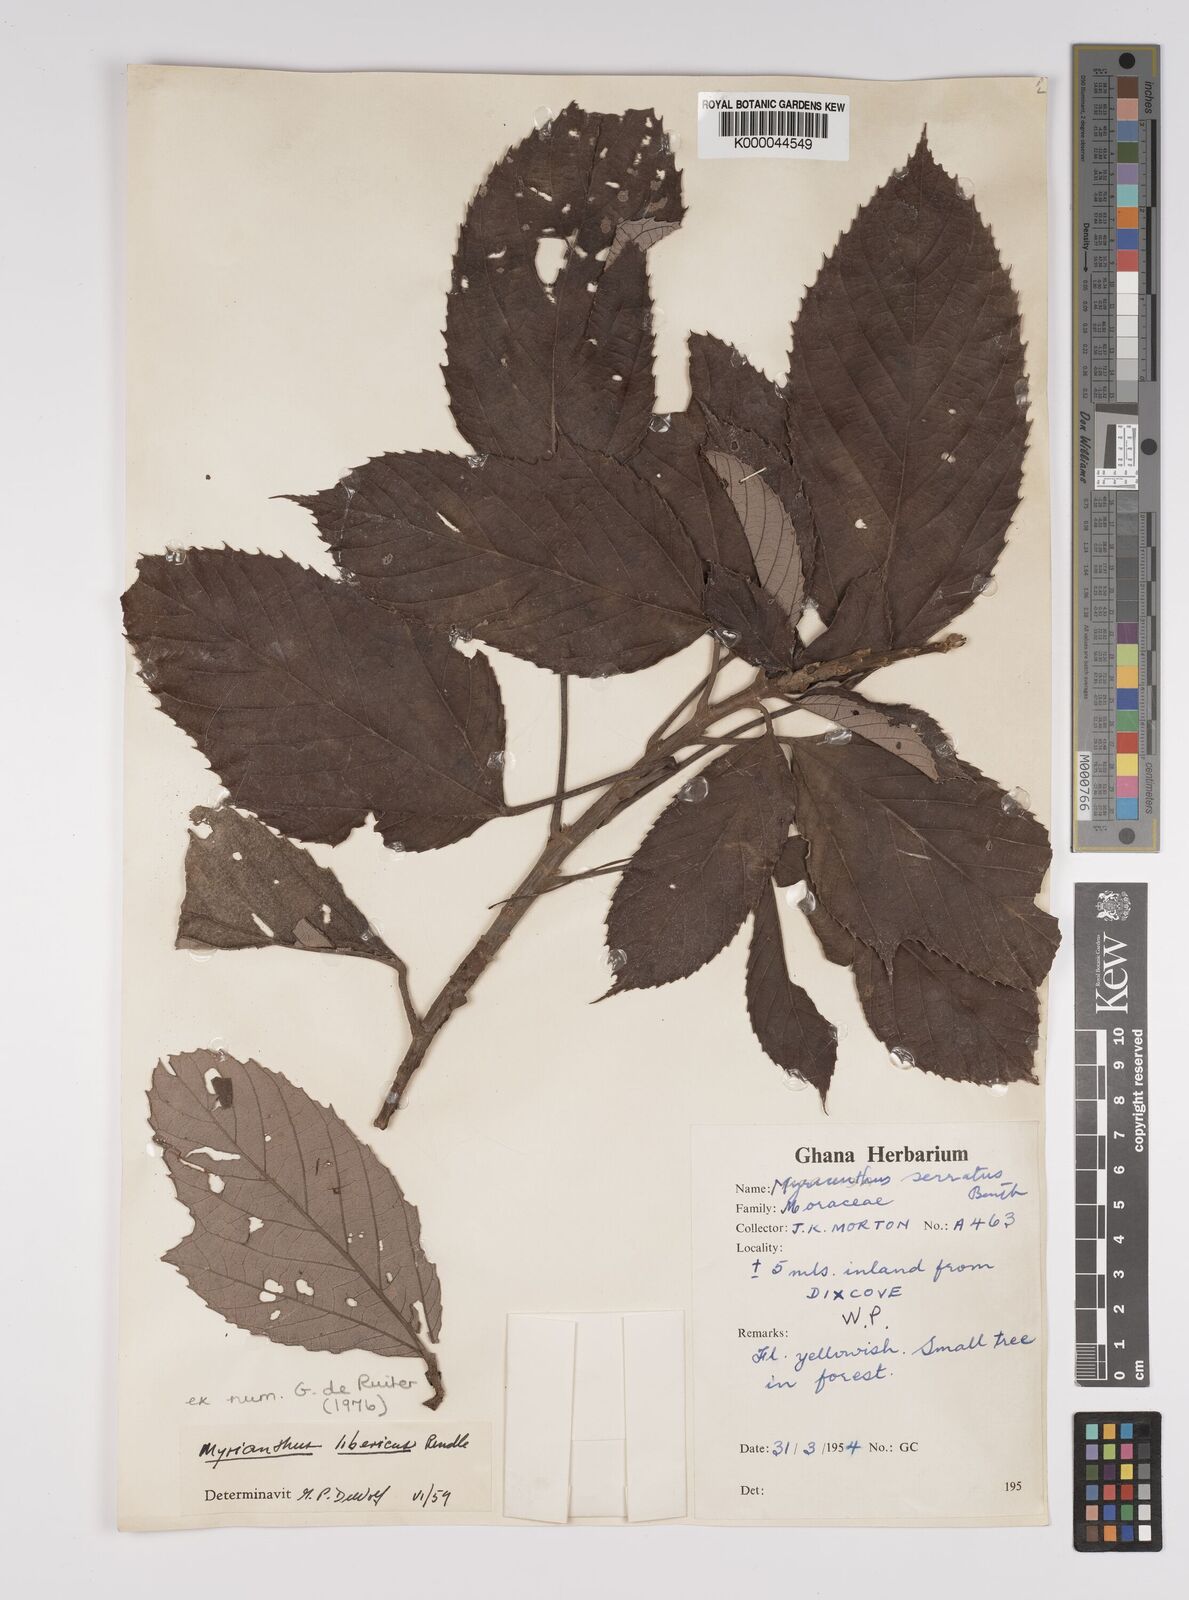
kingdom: Plantae
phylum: Tracheophyta
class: Magnoliopsida
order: Rosales
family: Urticaceae
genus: Myrianthus
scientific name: Myrianthus libericus
